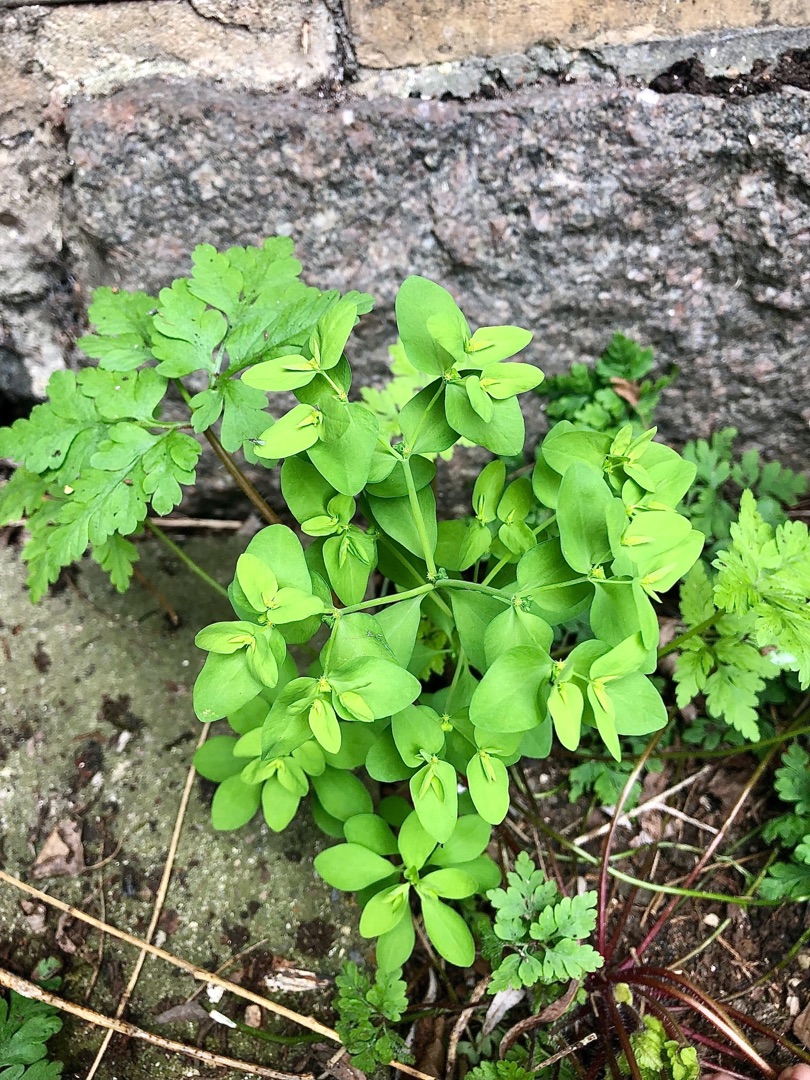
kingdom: Plantae
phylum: Tracheophyta
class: Magnoliopsida
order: Malpighiales
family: Euphorbiaceae
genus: Euphorbia
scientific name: Euphorbia peplus
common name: Gaffel-vortemælk
